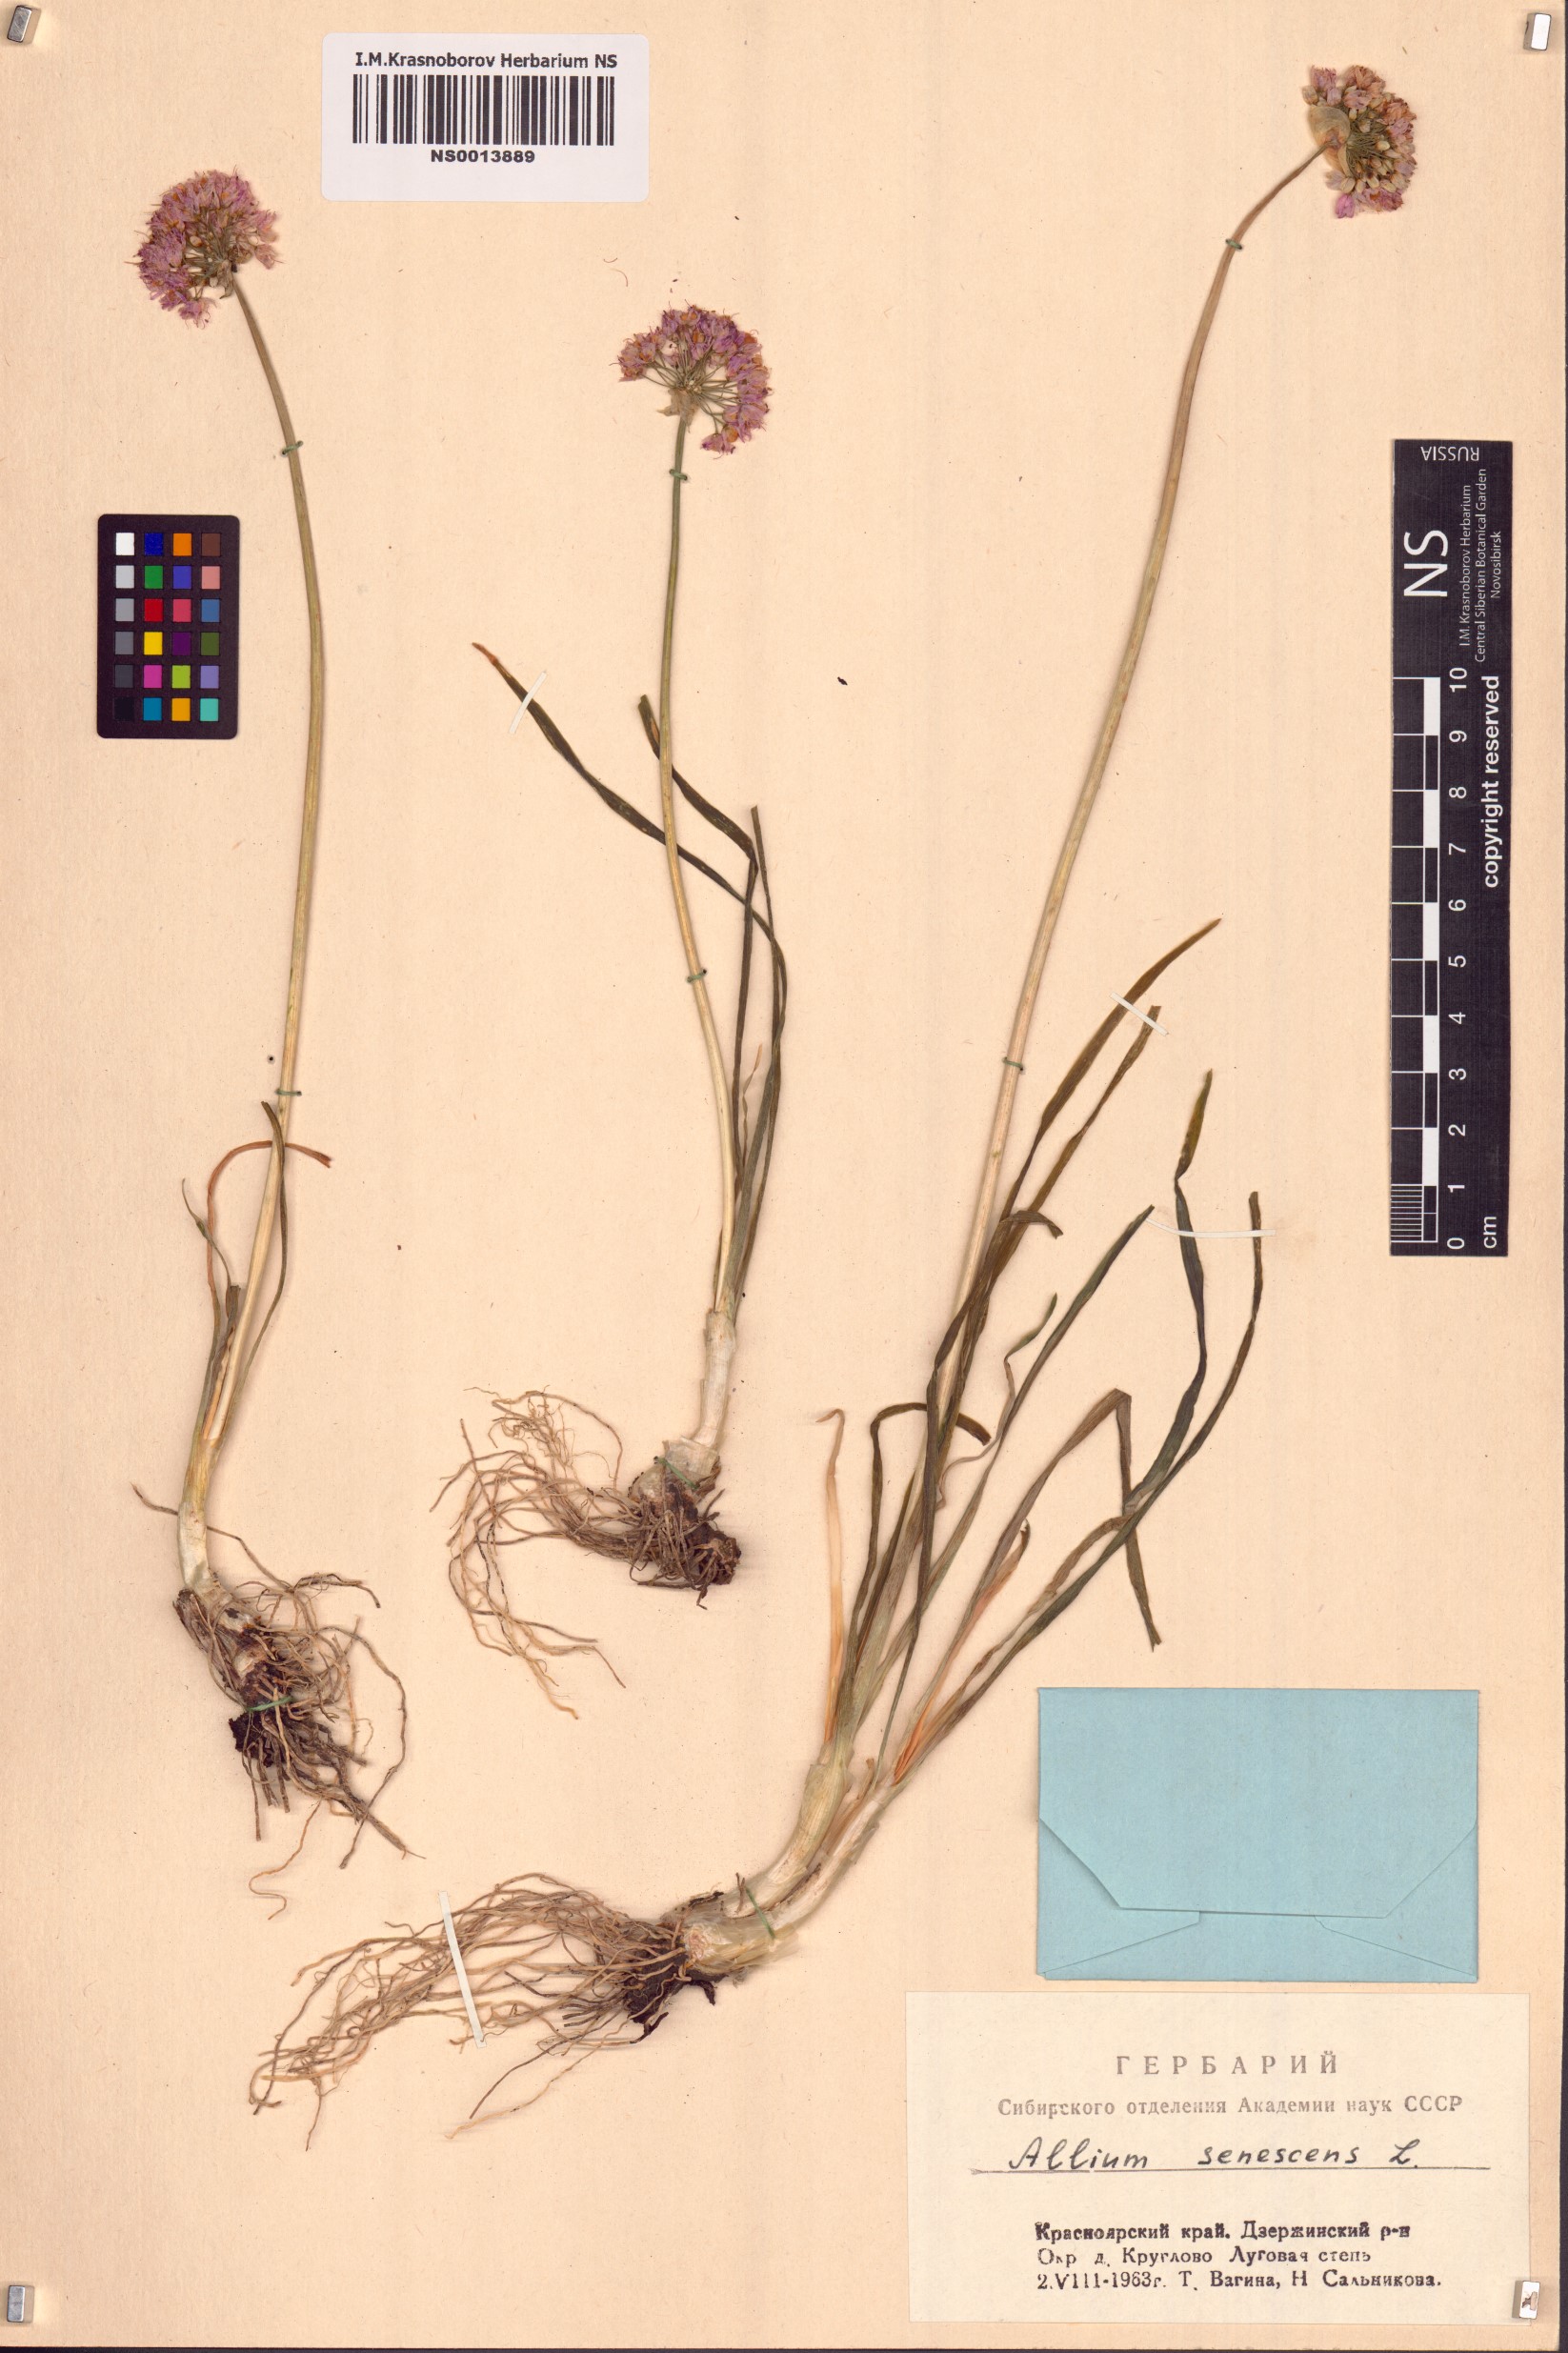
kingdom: Plantae
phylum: Tracheophyta
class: Liliopsida
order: Asparagales
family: Amaryllidaceae
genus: Allium
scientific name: Allium senescens
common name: German garlic
